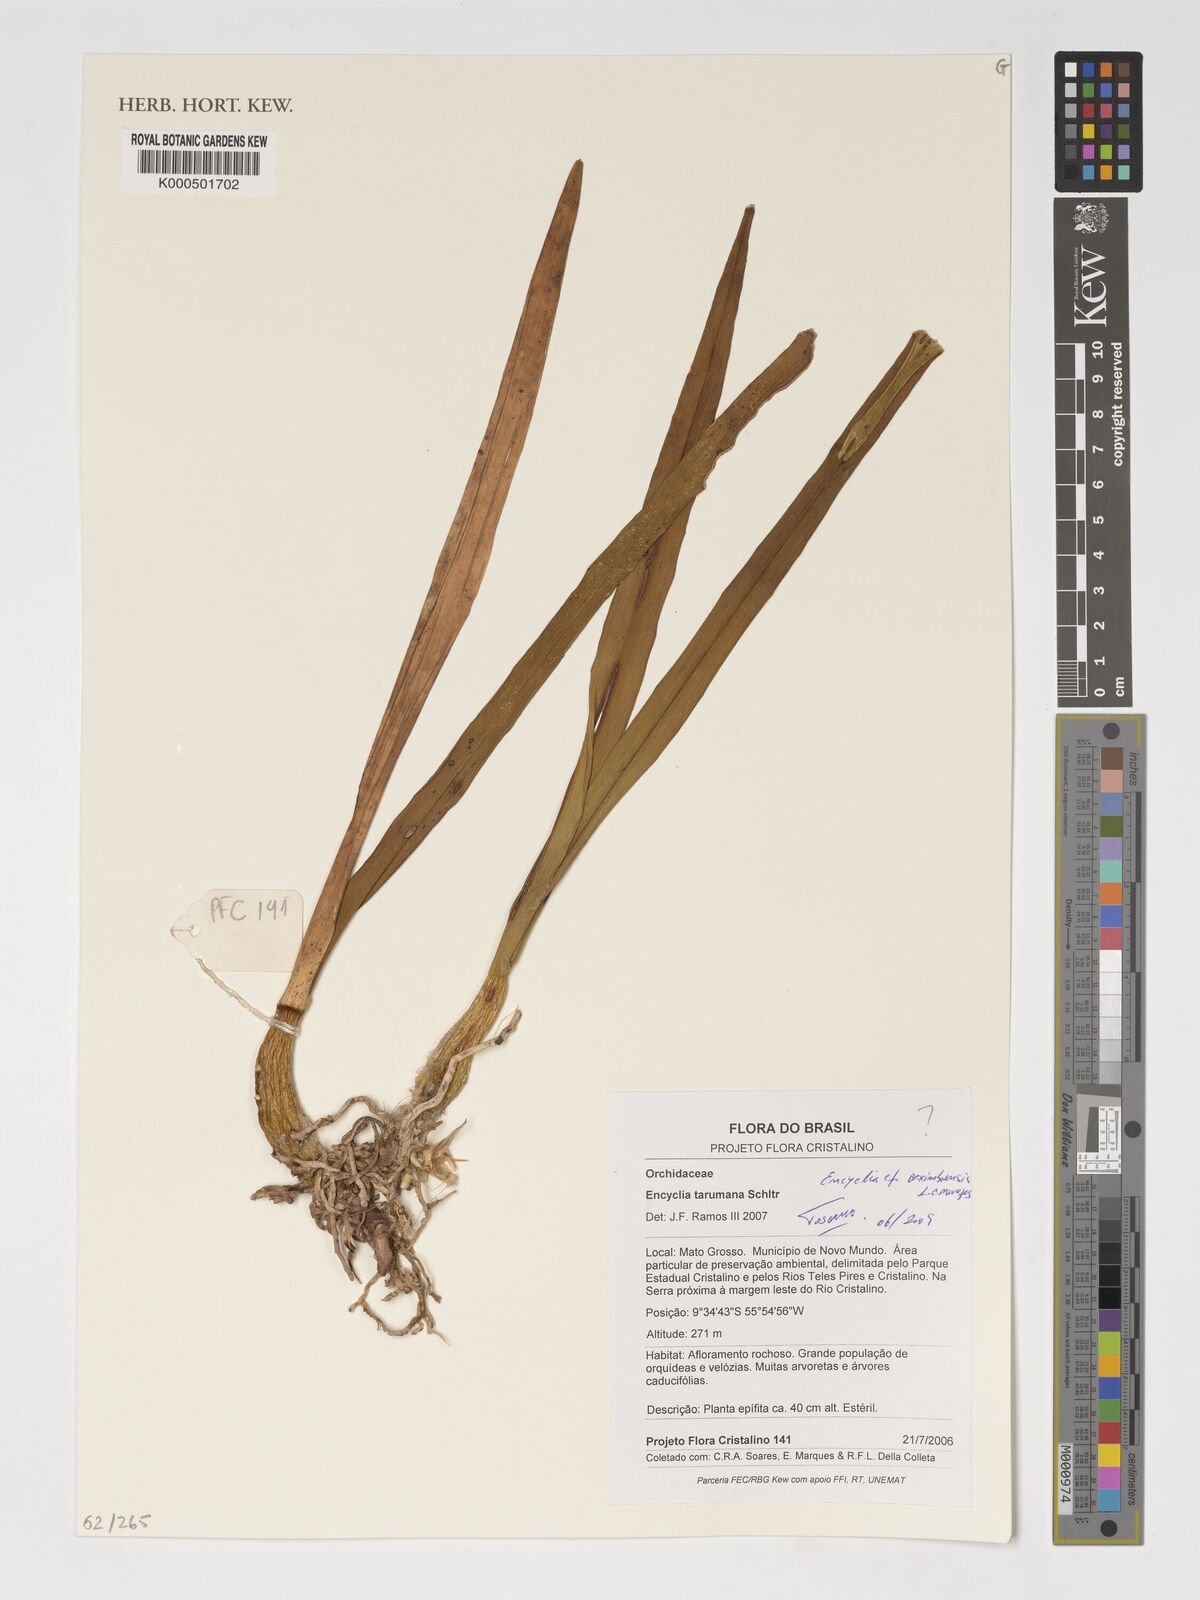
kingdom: Plantae
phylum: Tracheophyta
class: Liliopsida
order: Asparagales
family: Orchidaceae
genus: Encyclia
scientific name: Encyclia xerophytica
